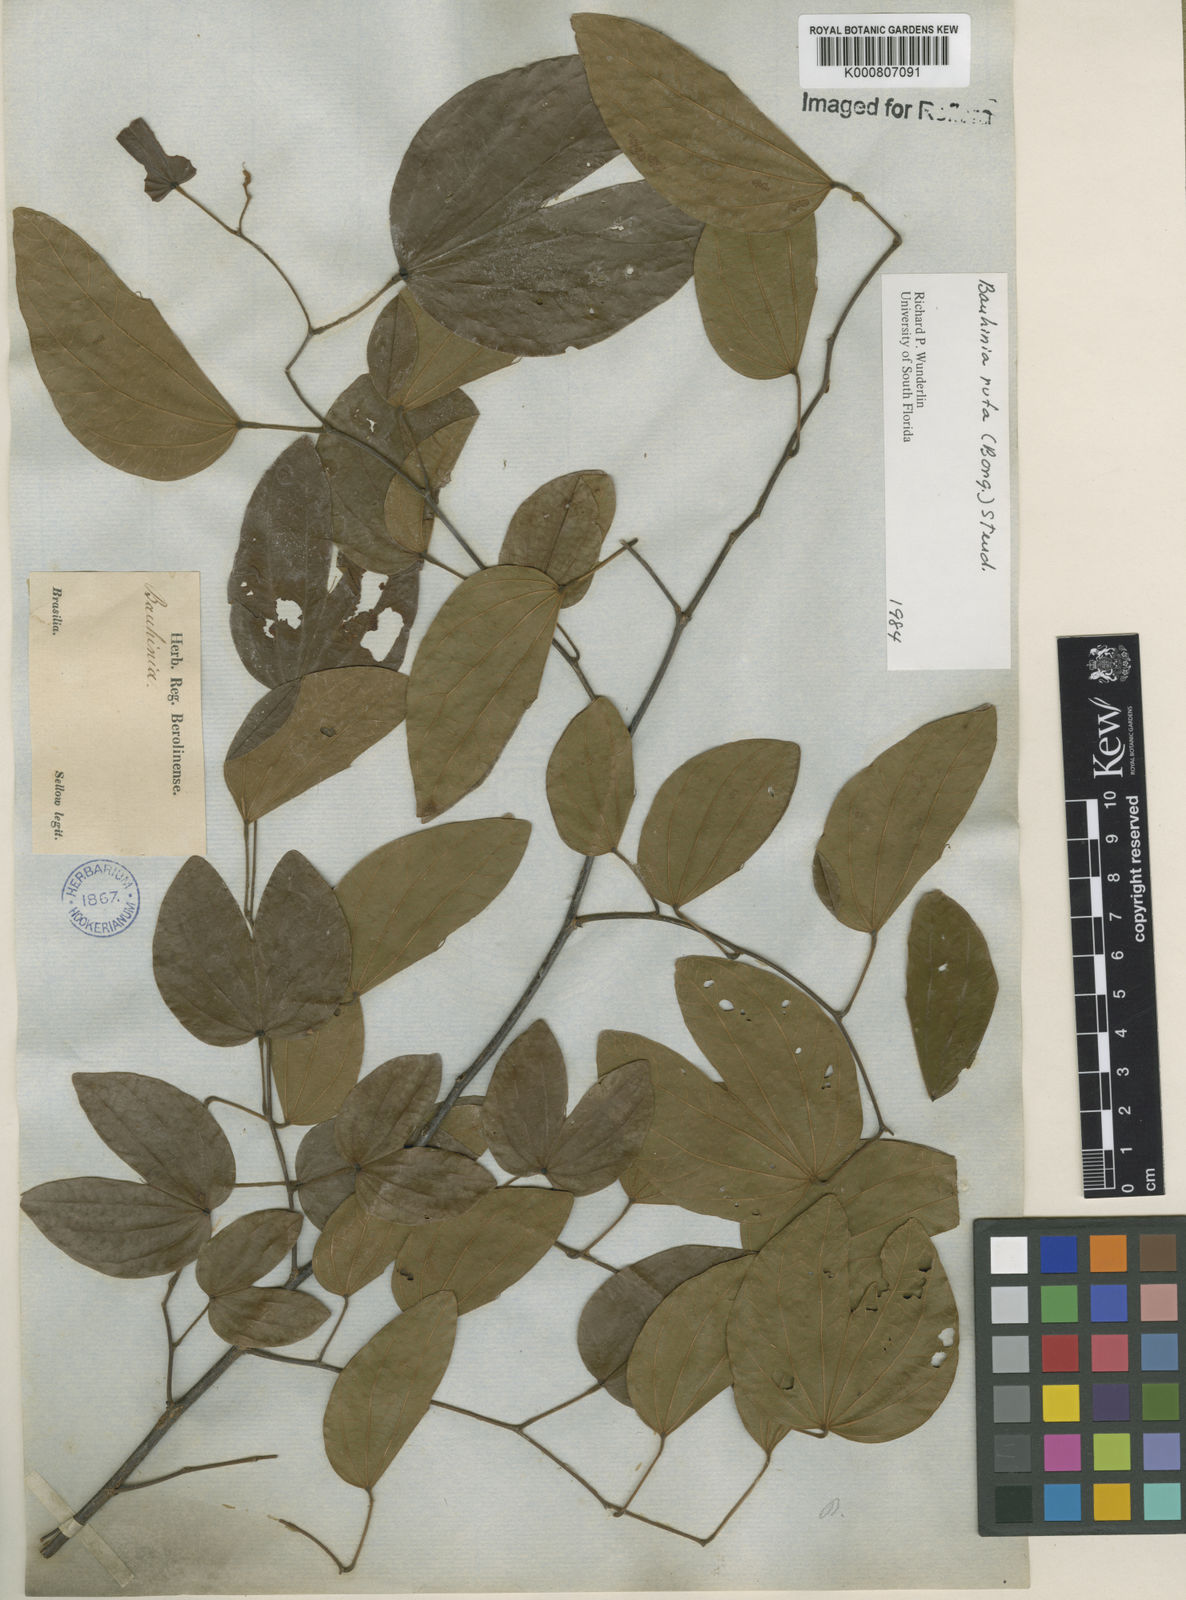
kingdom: Plantae
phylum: Tracheophyta
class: Magnoliopsida
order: Fabales
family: Fabaceae
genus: Bauhinia
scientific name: Bauhinia rufa
